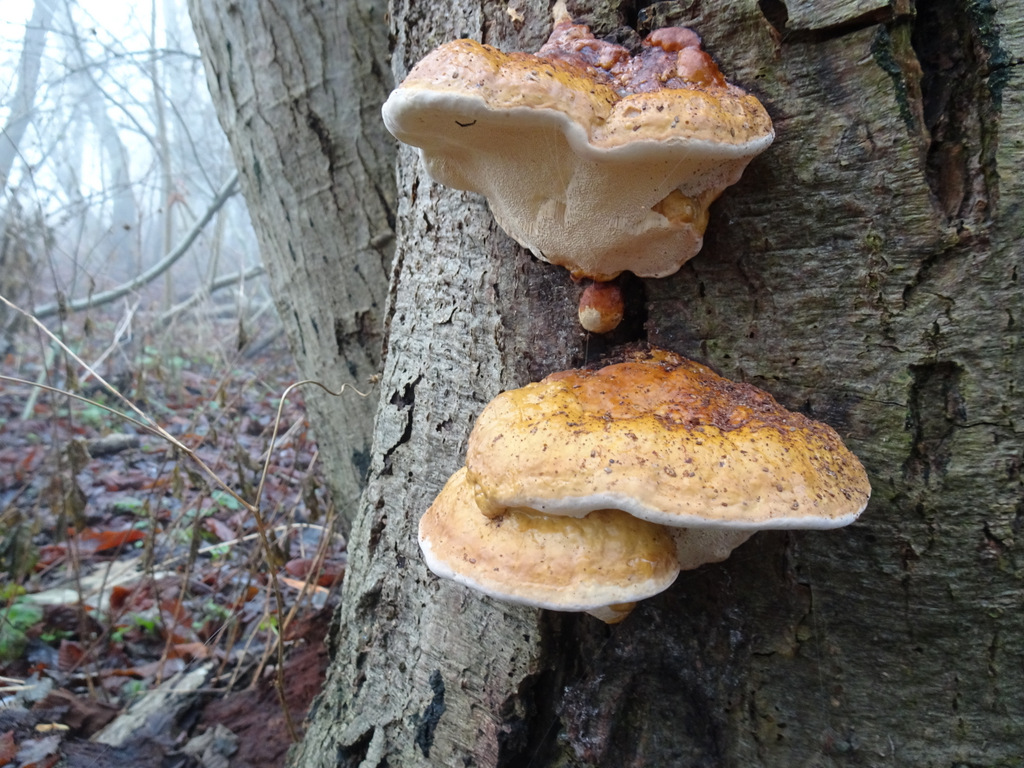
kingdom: Fungi
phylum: Basidiomycota
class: Agaricomycetes
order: Polyporales
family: Fomitopsidaceae
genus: Fomitopsis
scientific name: Fomitopsis pinicola
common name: randbæltet hovporesvamp
